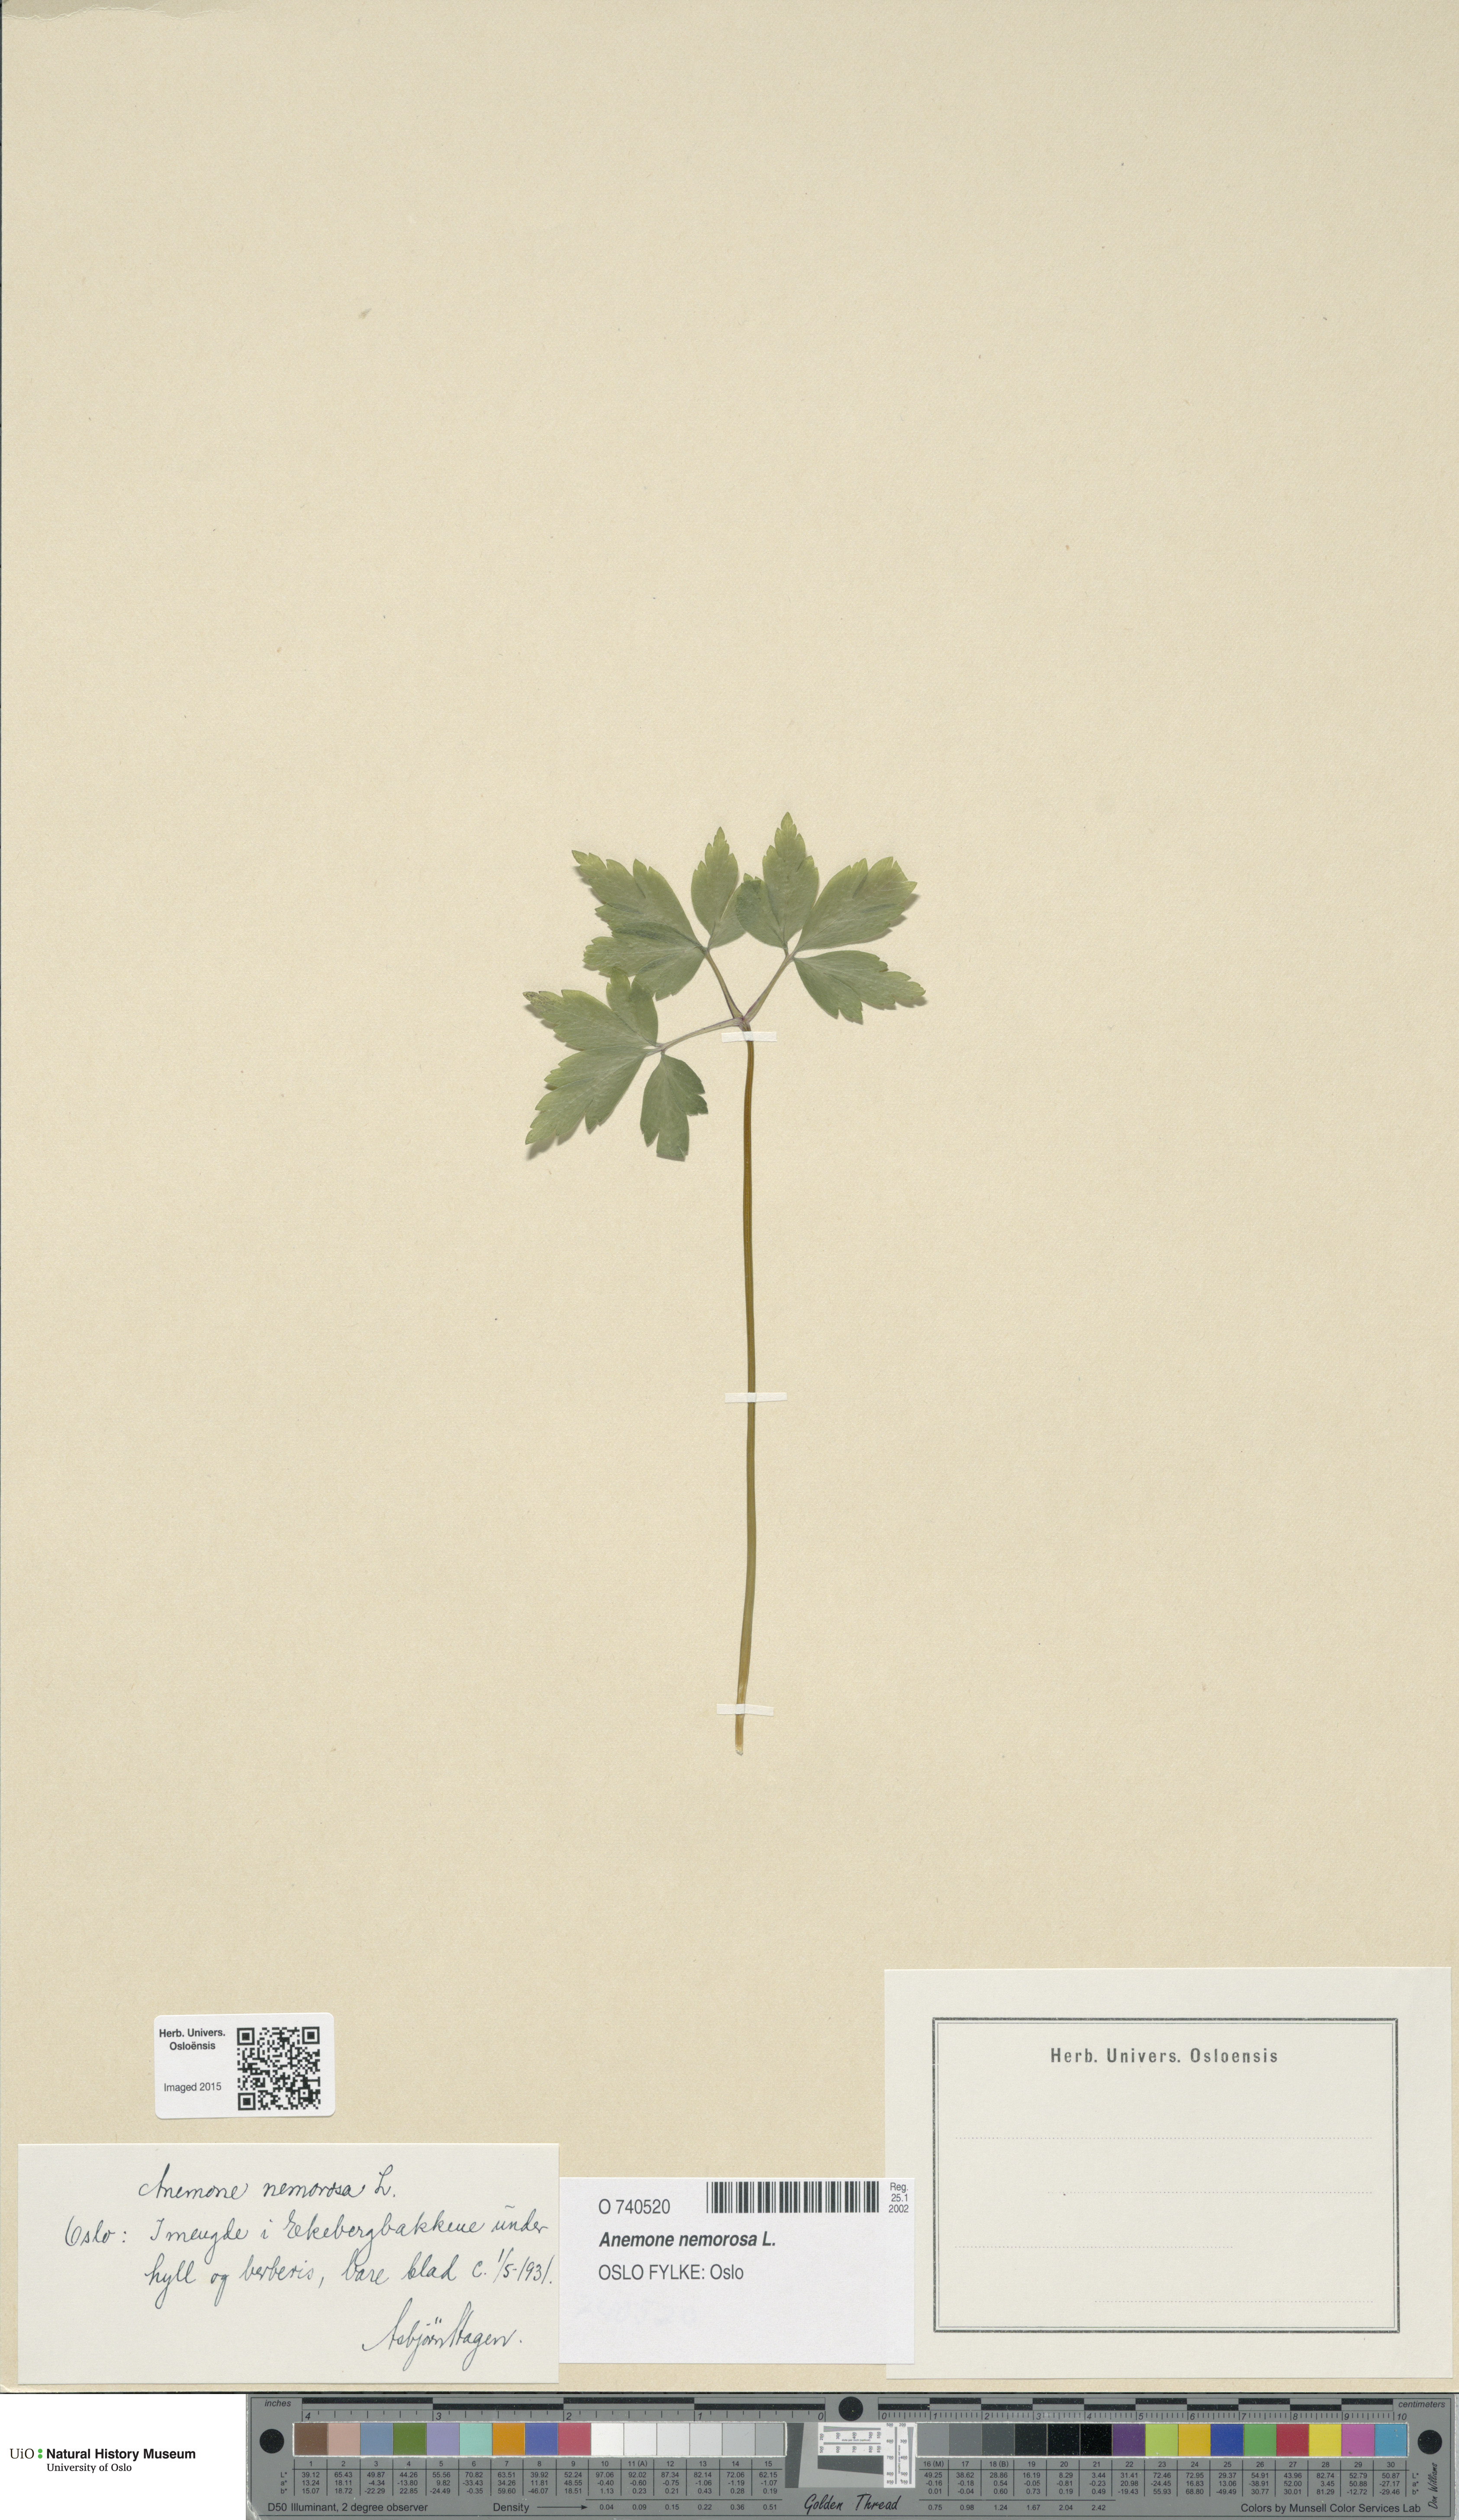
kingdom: Plantae
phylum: Tracheophyta
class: Magnoliopsida
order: Ranunculales
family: Ranunculaceae
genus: Anemone
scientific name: Anemone nemorosa
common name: Wood anemone
